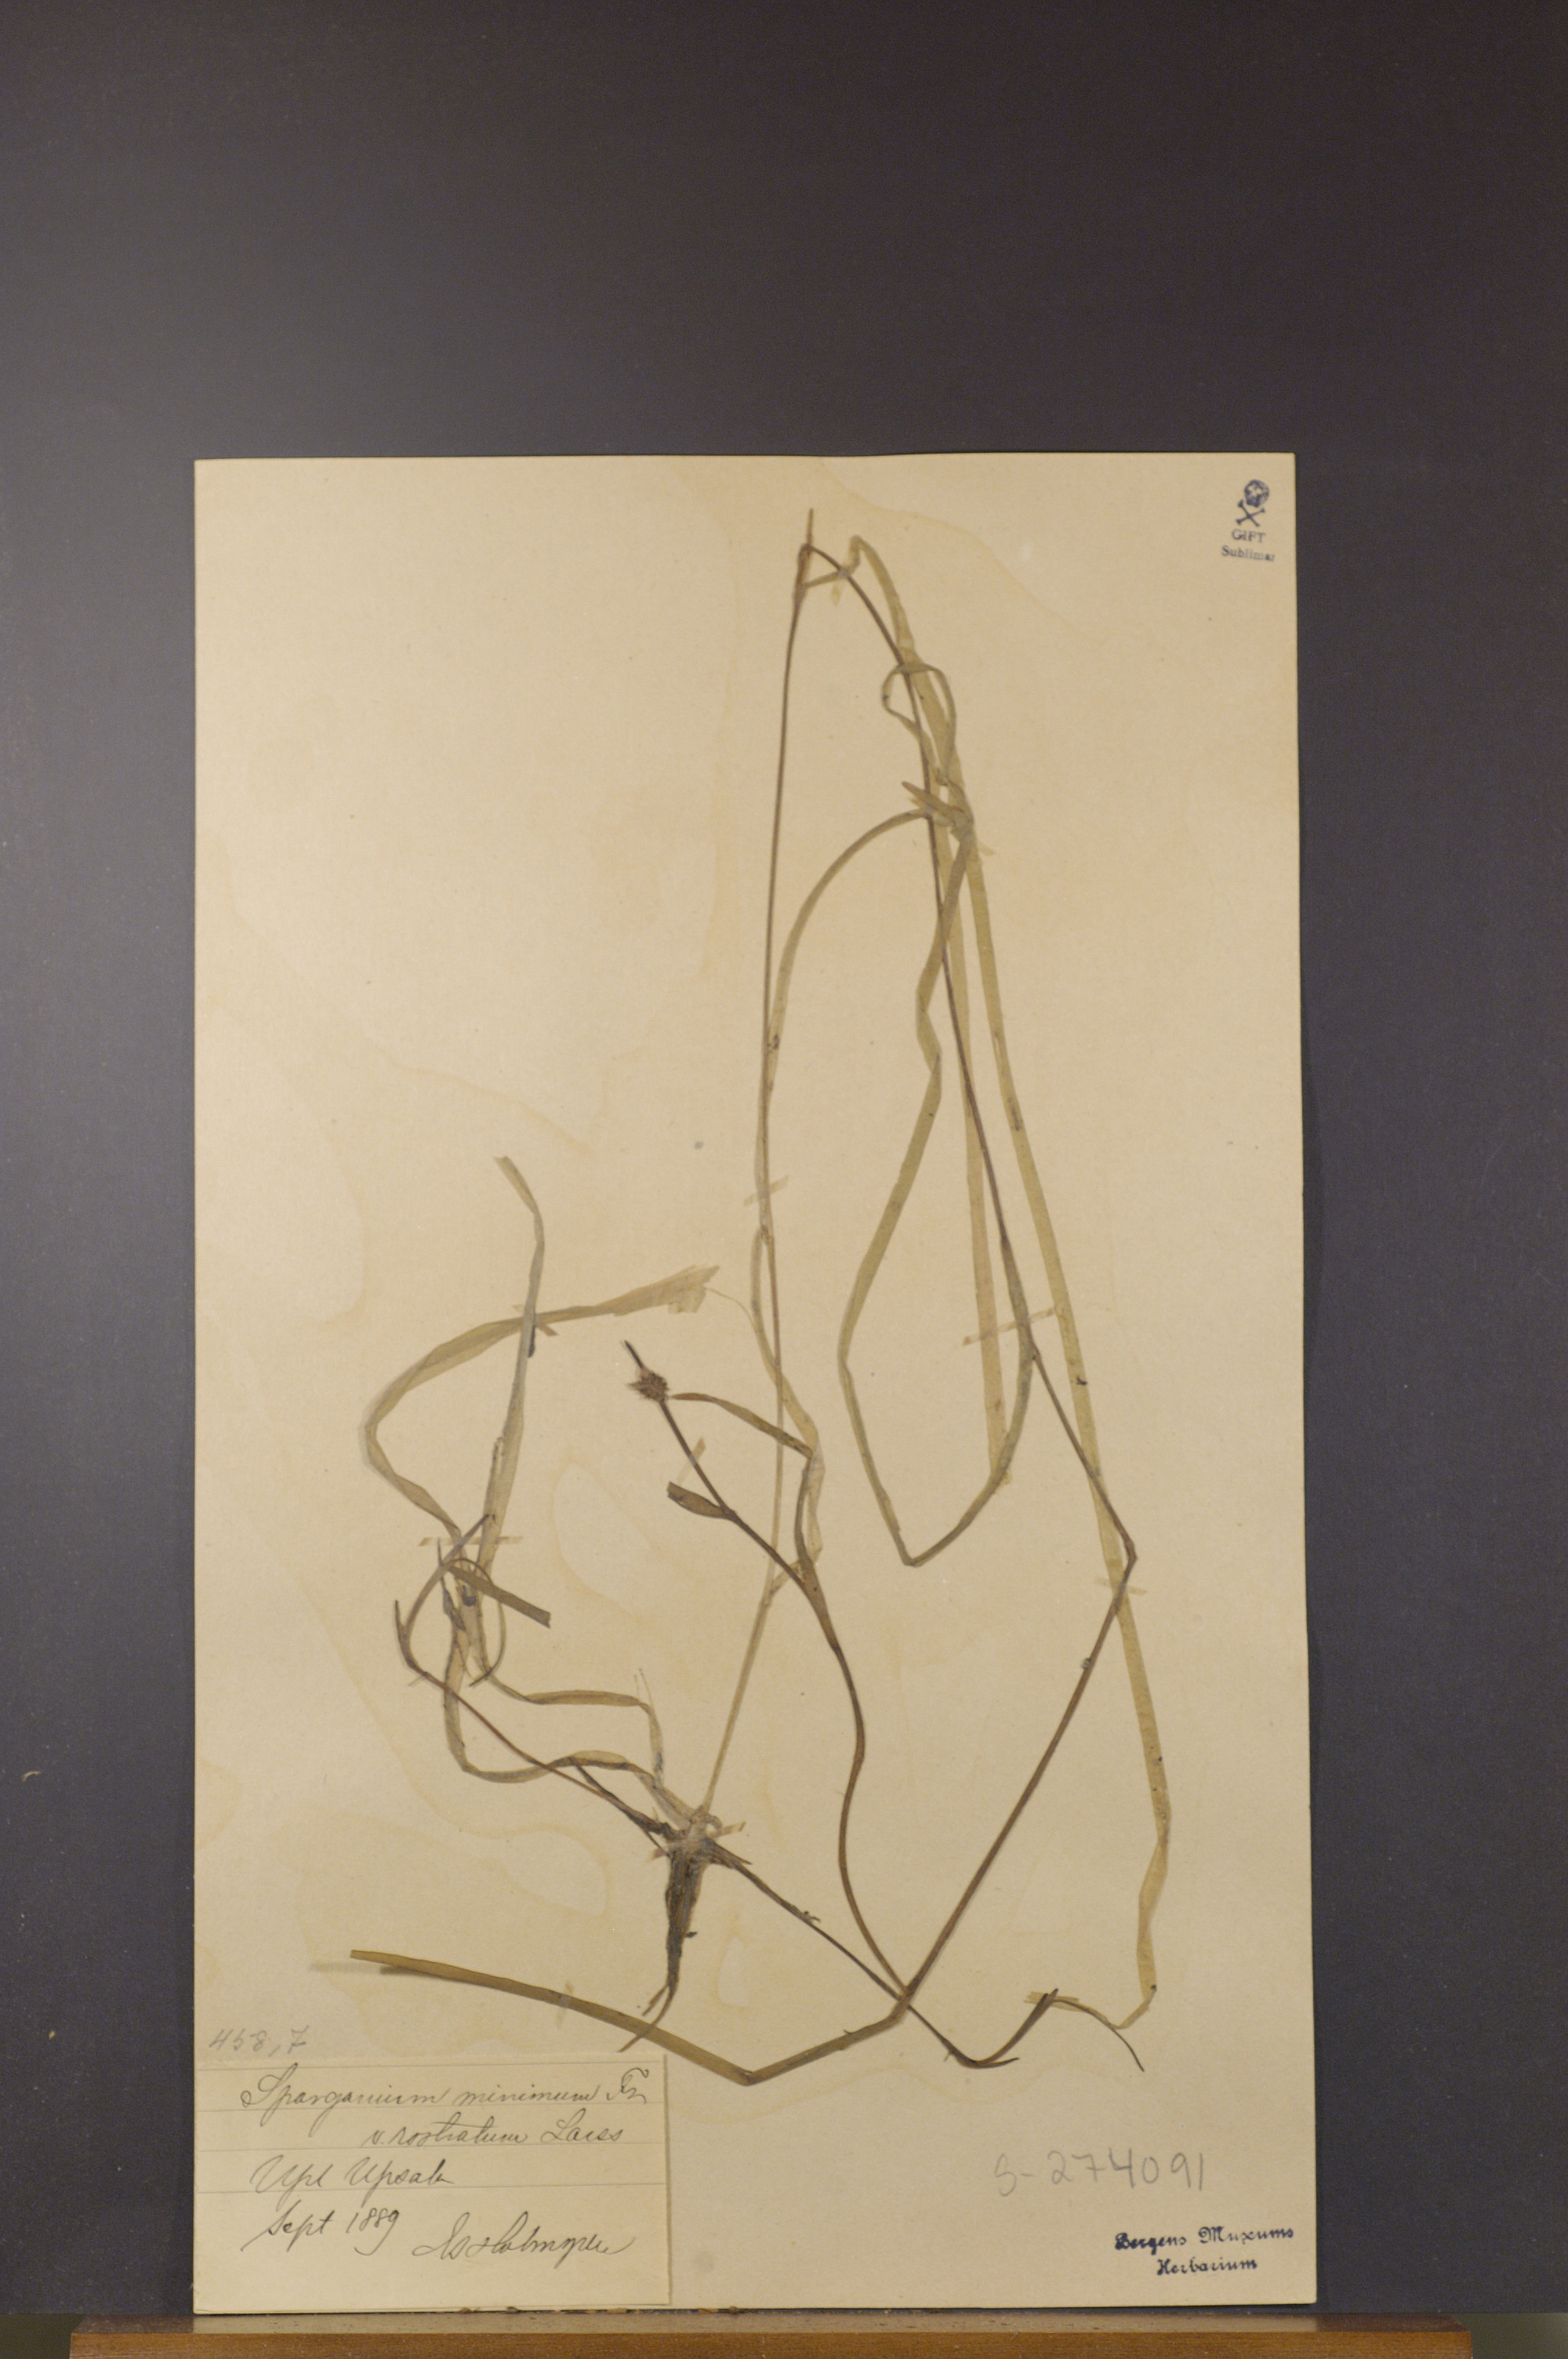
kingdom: Plantae
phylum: Tracheophyta
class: Liliopsida
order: Poales
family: Typhaceae
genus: Sparganium
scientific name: Sparganium natans
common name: Least bur-reed
